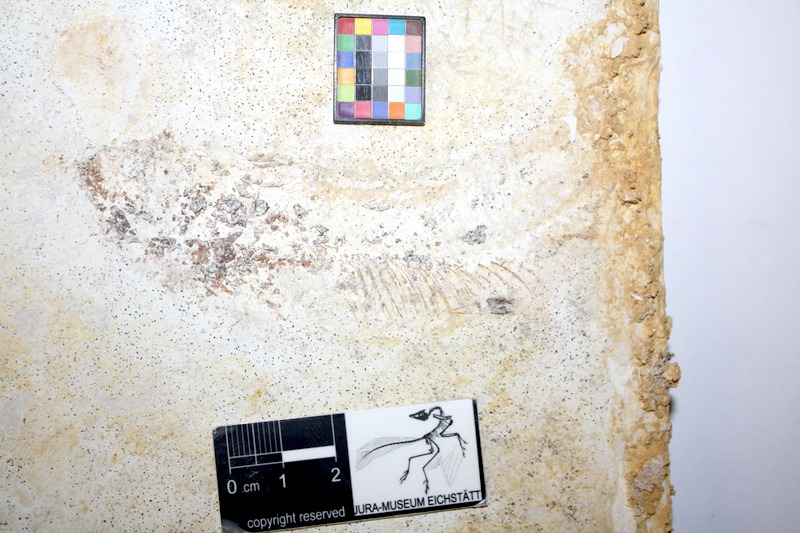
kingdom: Animalia
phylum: Chordata
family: Allothrissopidae
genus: Allothrissops
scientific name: Allothrissops mesogaster
